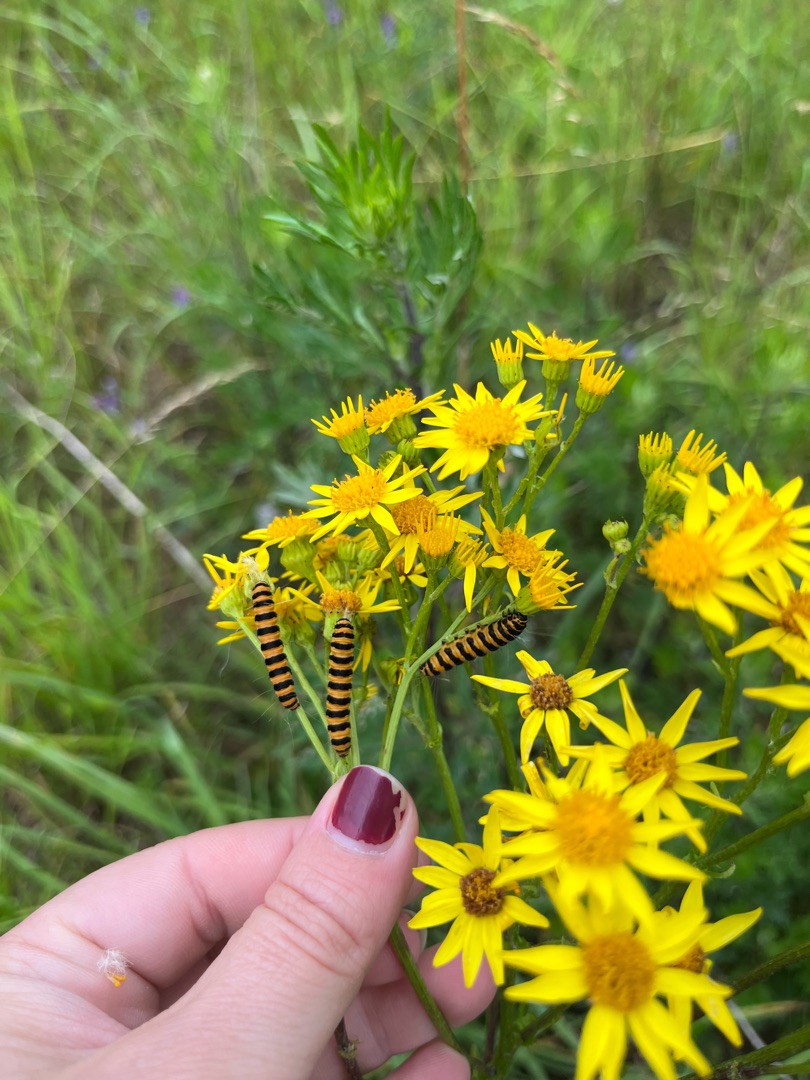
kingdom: Animalia
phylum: Arthropoda
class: Insecta
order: Lepidoptera
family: Erebidae
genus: Tyria
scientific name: Tyria jacobaeae
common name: Blodplet
